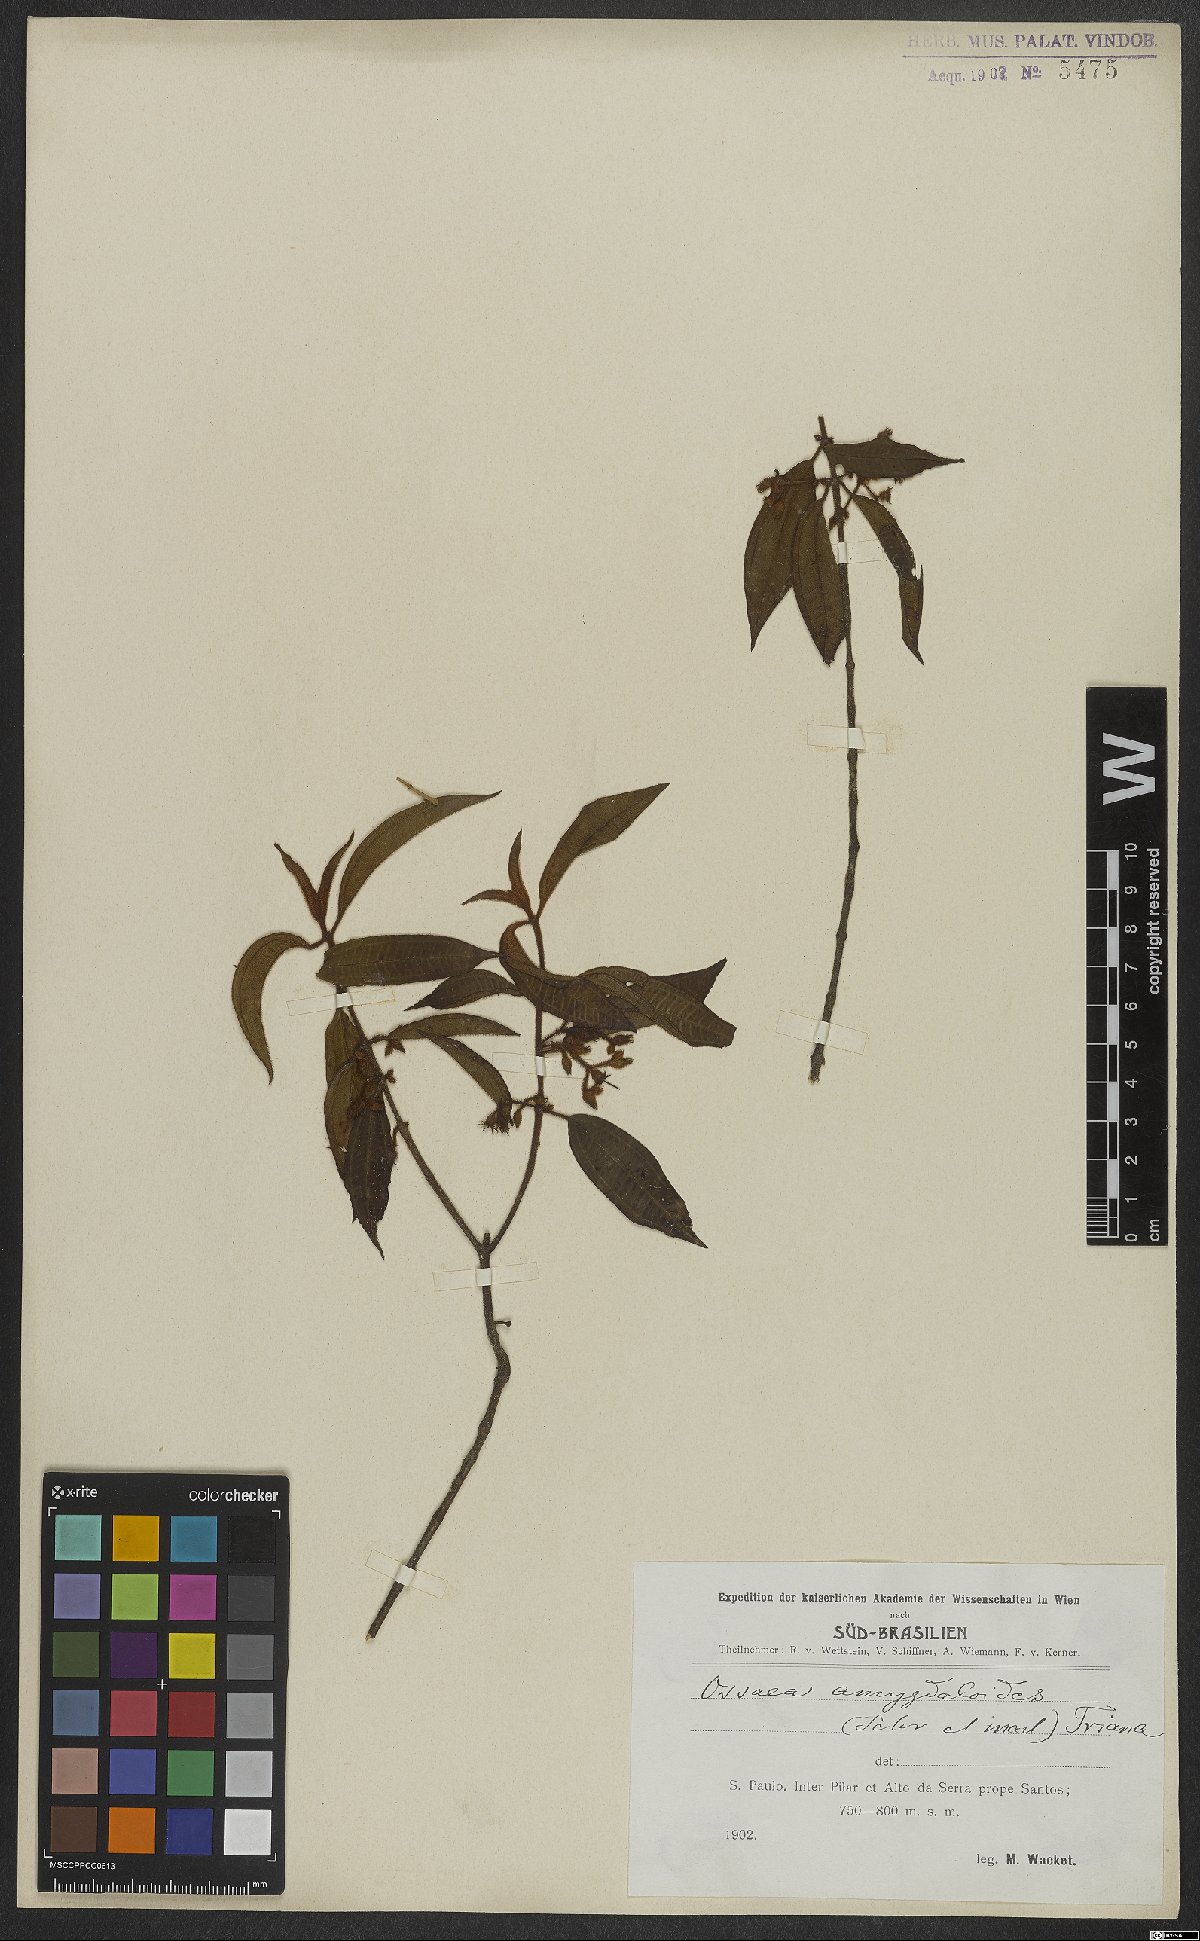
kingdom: Plantae
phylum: Tracheophyta
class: Magnoliopsida
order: Myrtales
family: Melastomataceae
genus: Miconia
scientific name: Miconia amygdaloides
